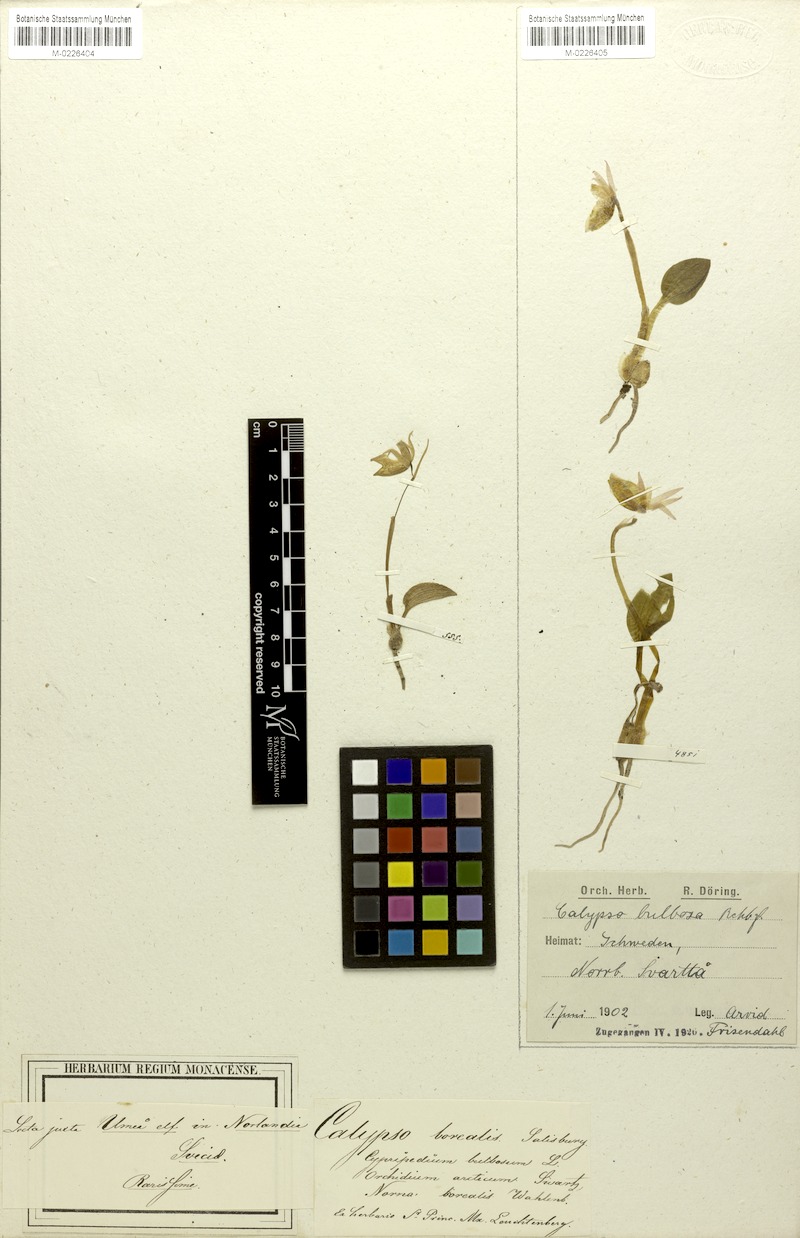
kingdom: Plantae
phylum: Tracheophyta
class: Liliopsida
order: Asparagales
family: Orchidaceae
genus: Calypso
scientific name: Calypso bulbosa
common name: Calypso
